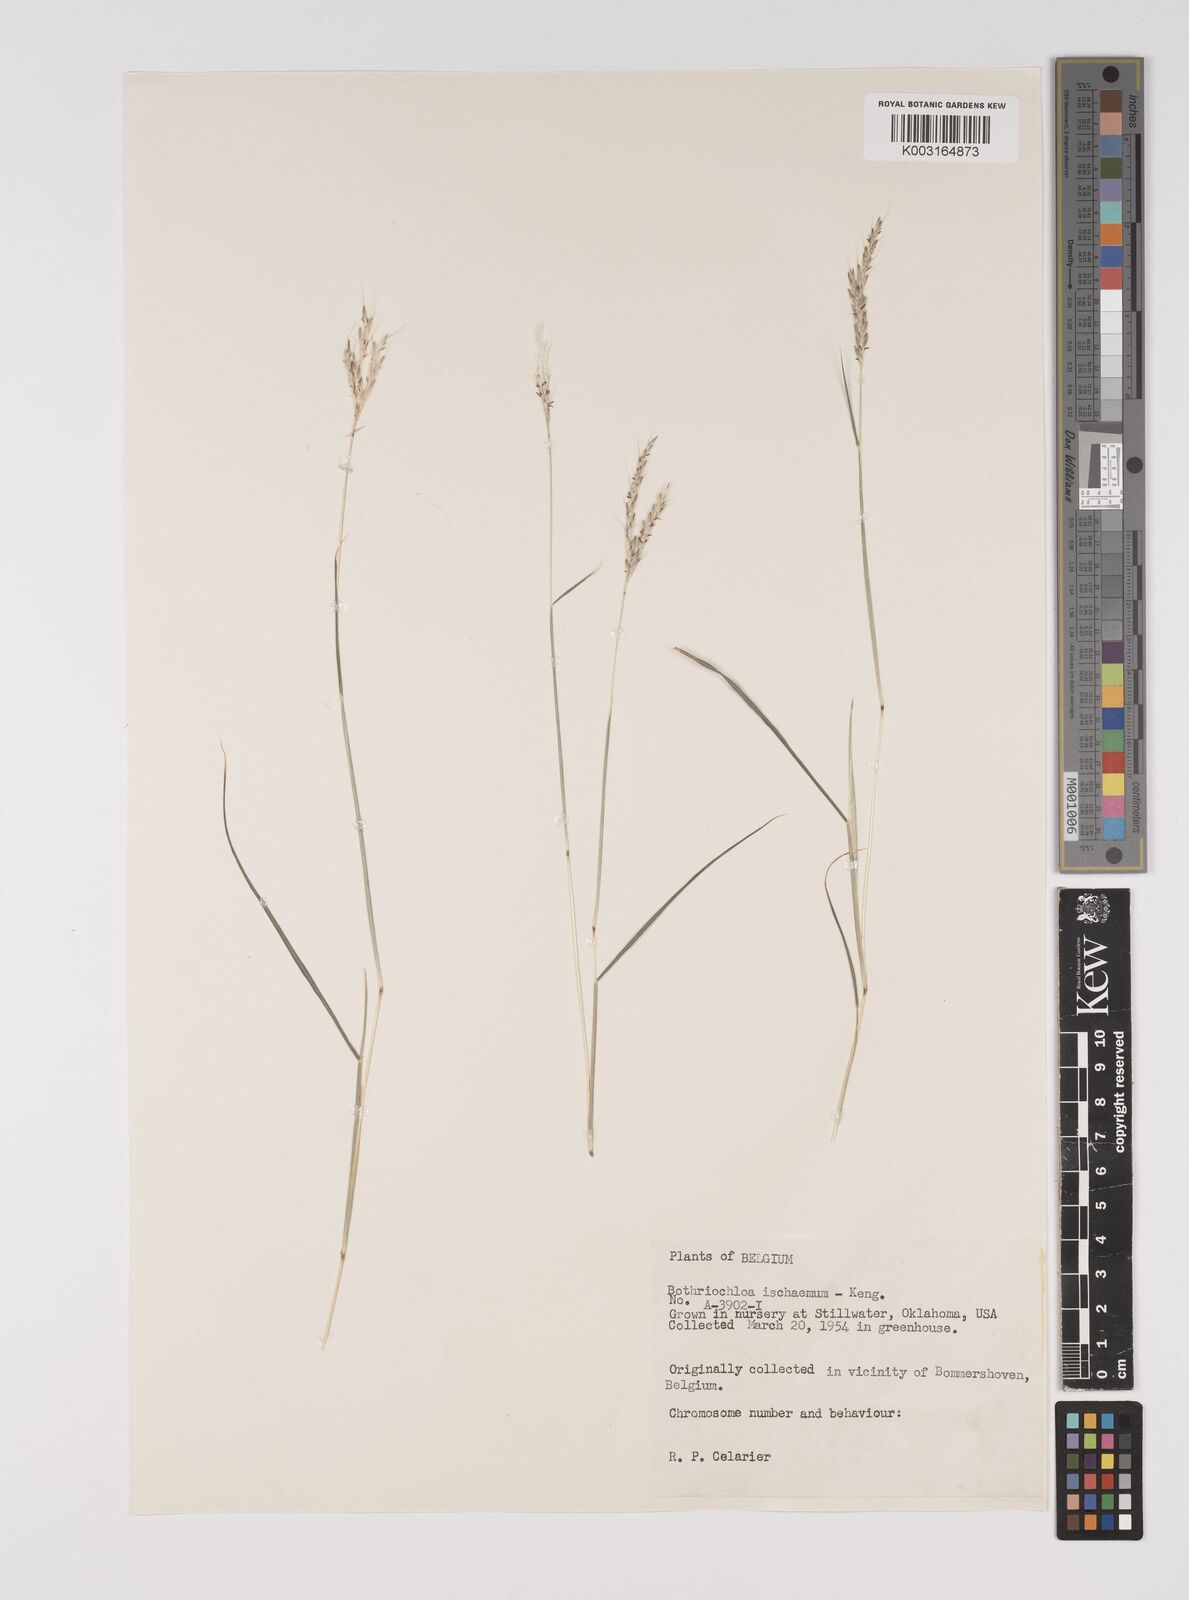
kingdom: Plantae
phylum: Tracheophyta
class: Liliopsida
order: Poales
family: Poaceae
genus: Bothriochloa
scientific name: Bothriochloa ischaemum
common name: Yellow bluestem
